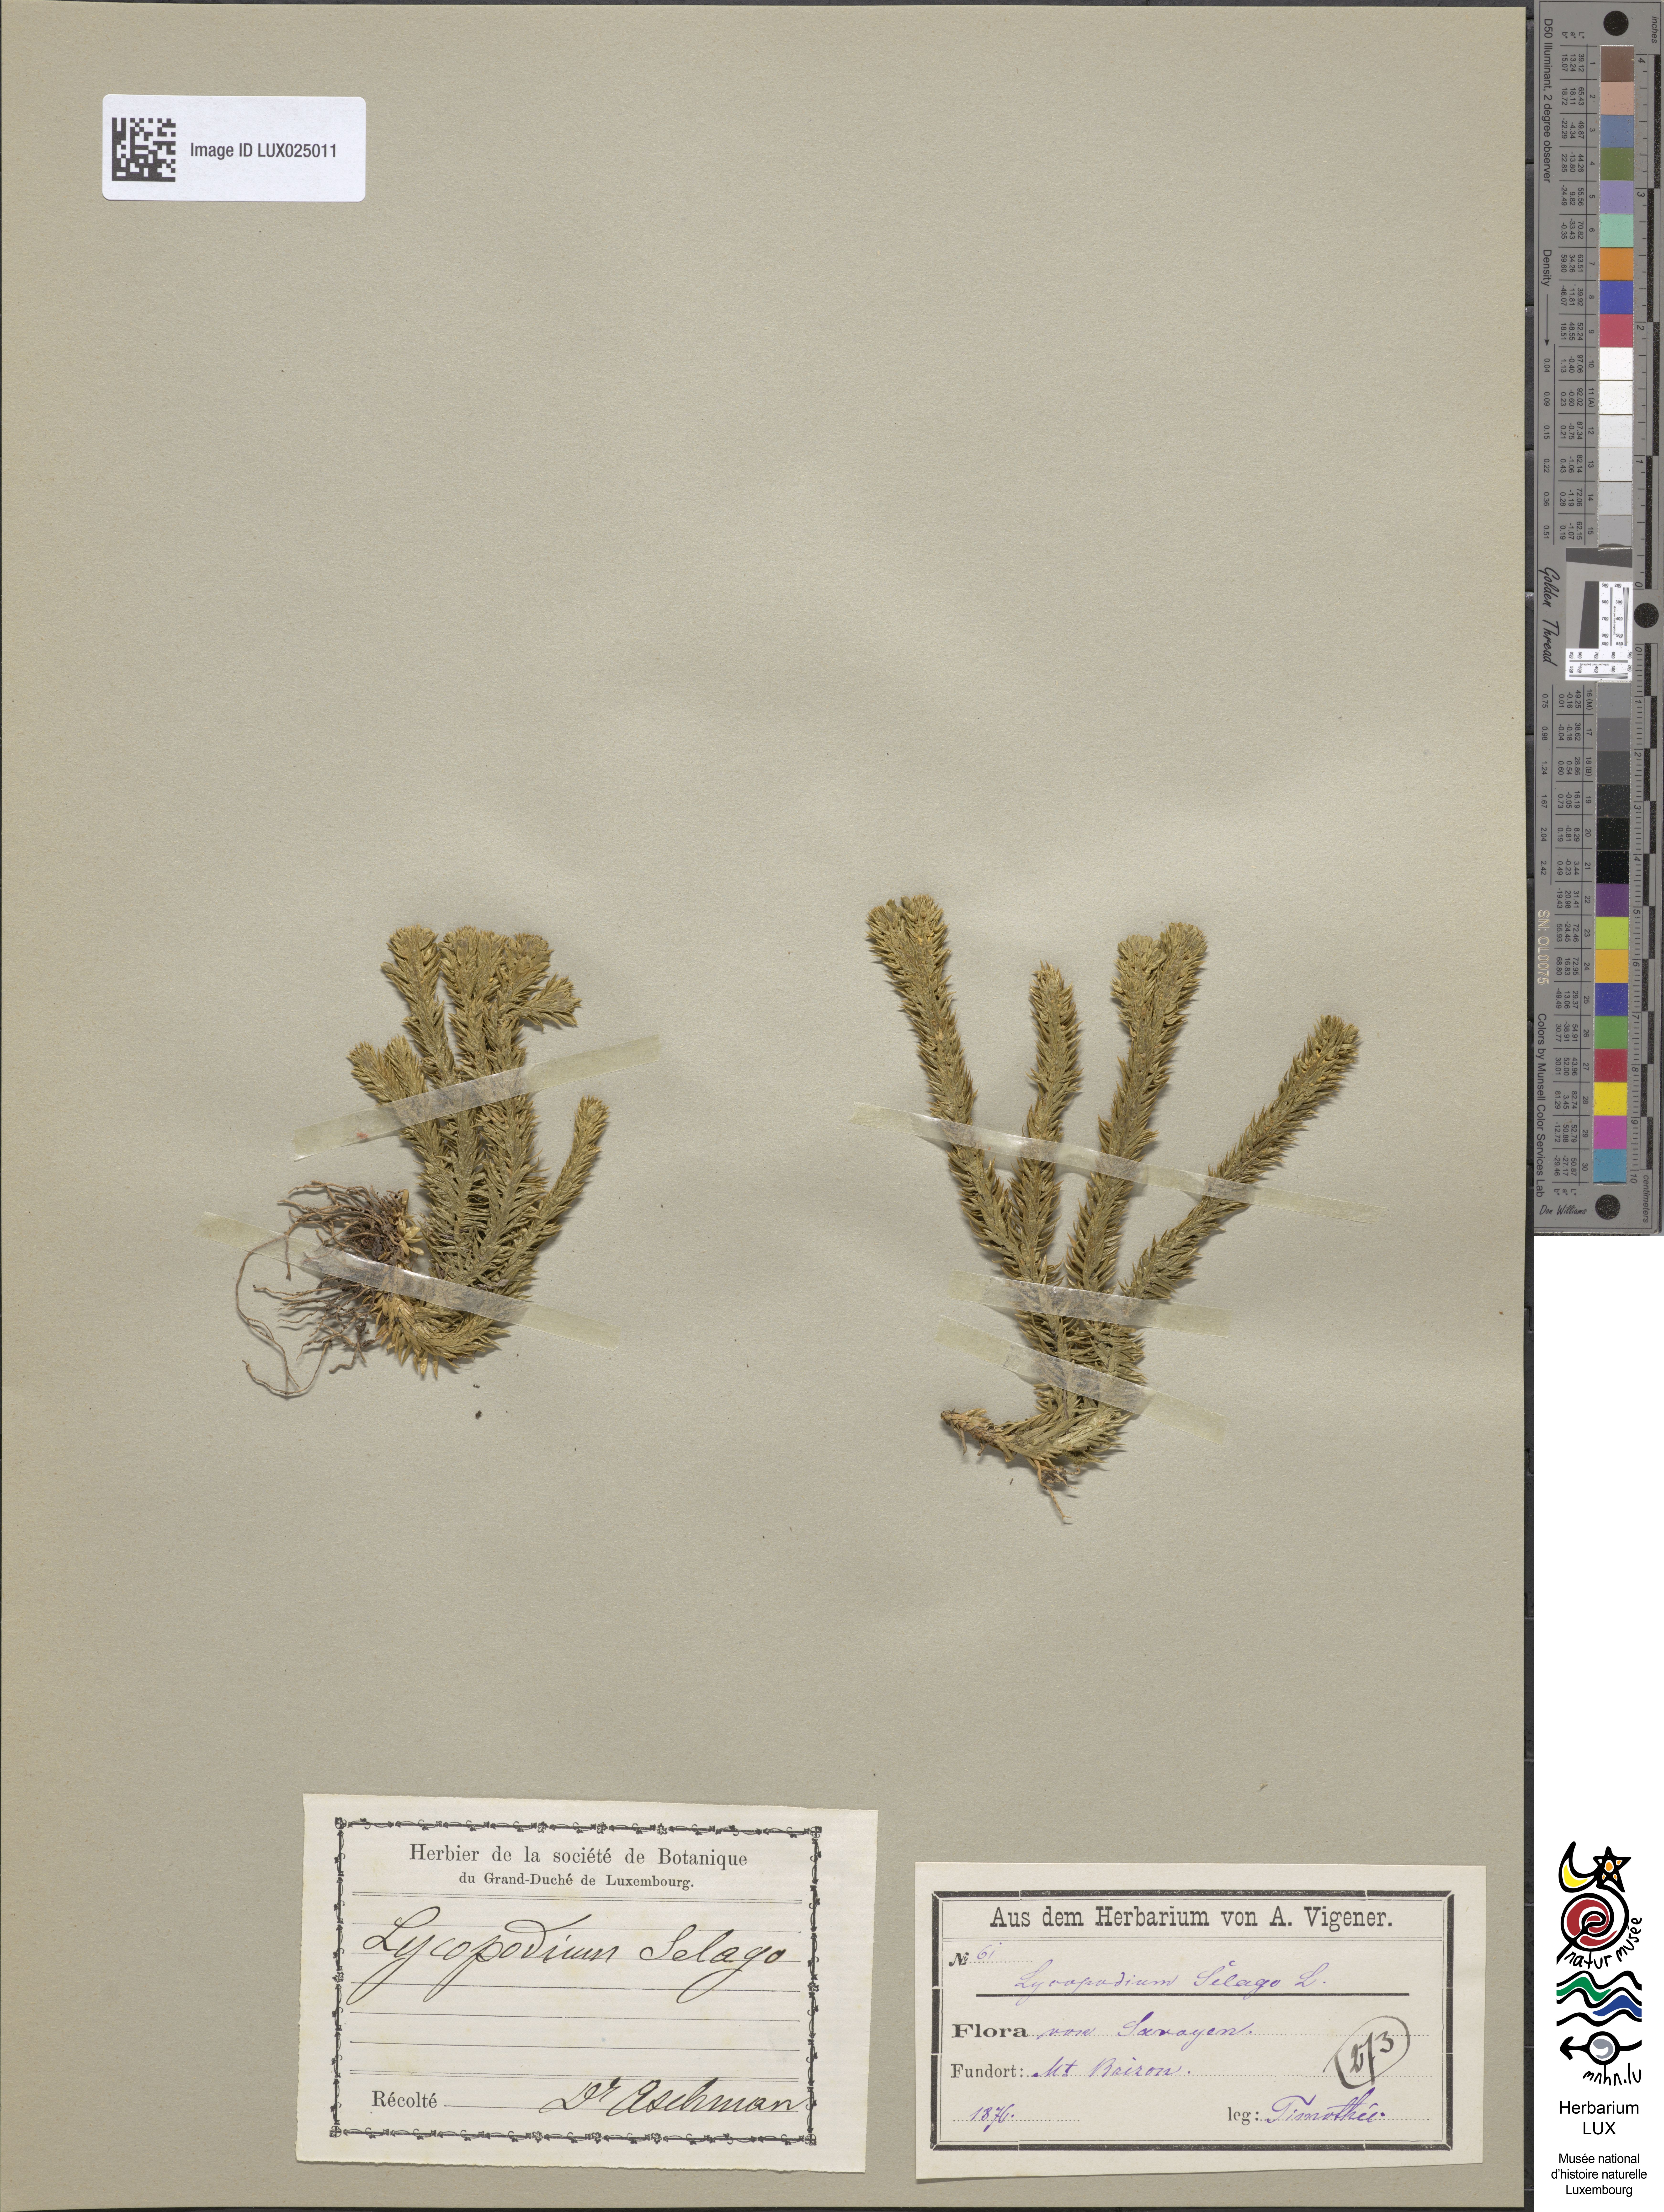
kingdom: Plantae
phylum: Tracheophyta
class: Lycopodiopsida
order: Lycopodiales
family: Lycopodiaceae
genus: Huperzia
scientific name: Huperzia selago
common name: Northern firmoss
